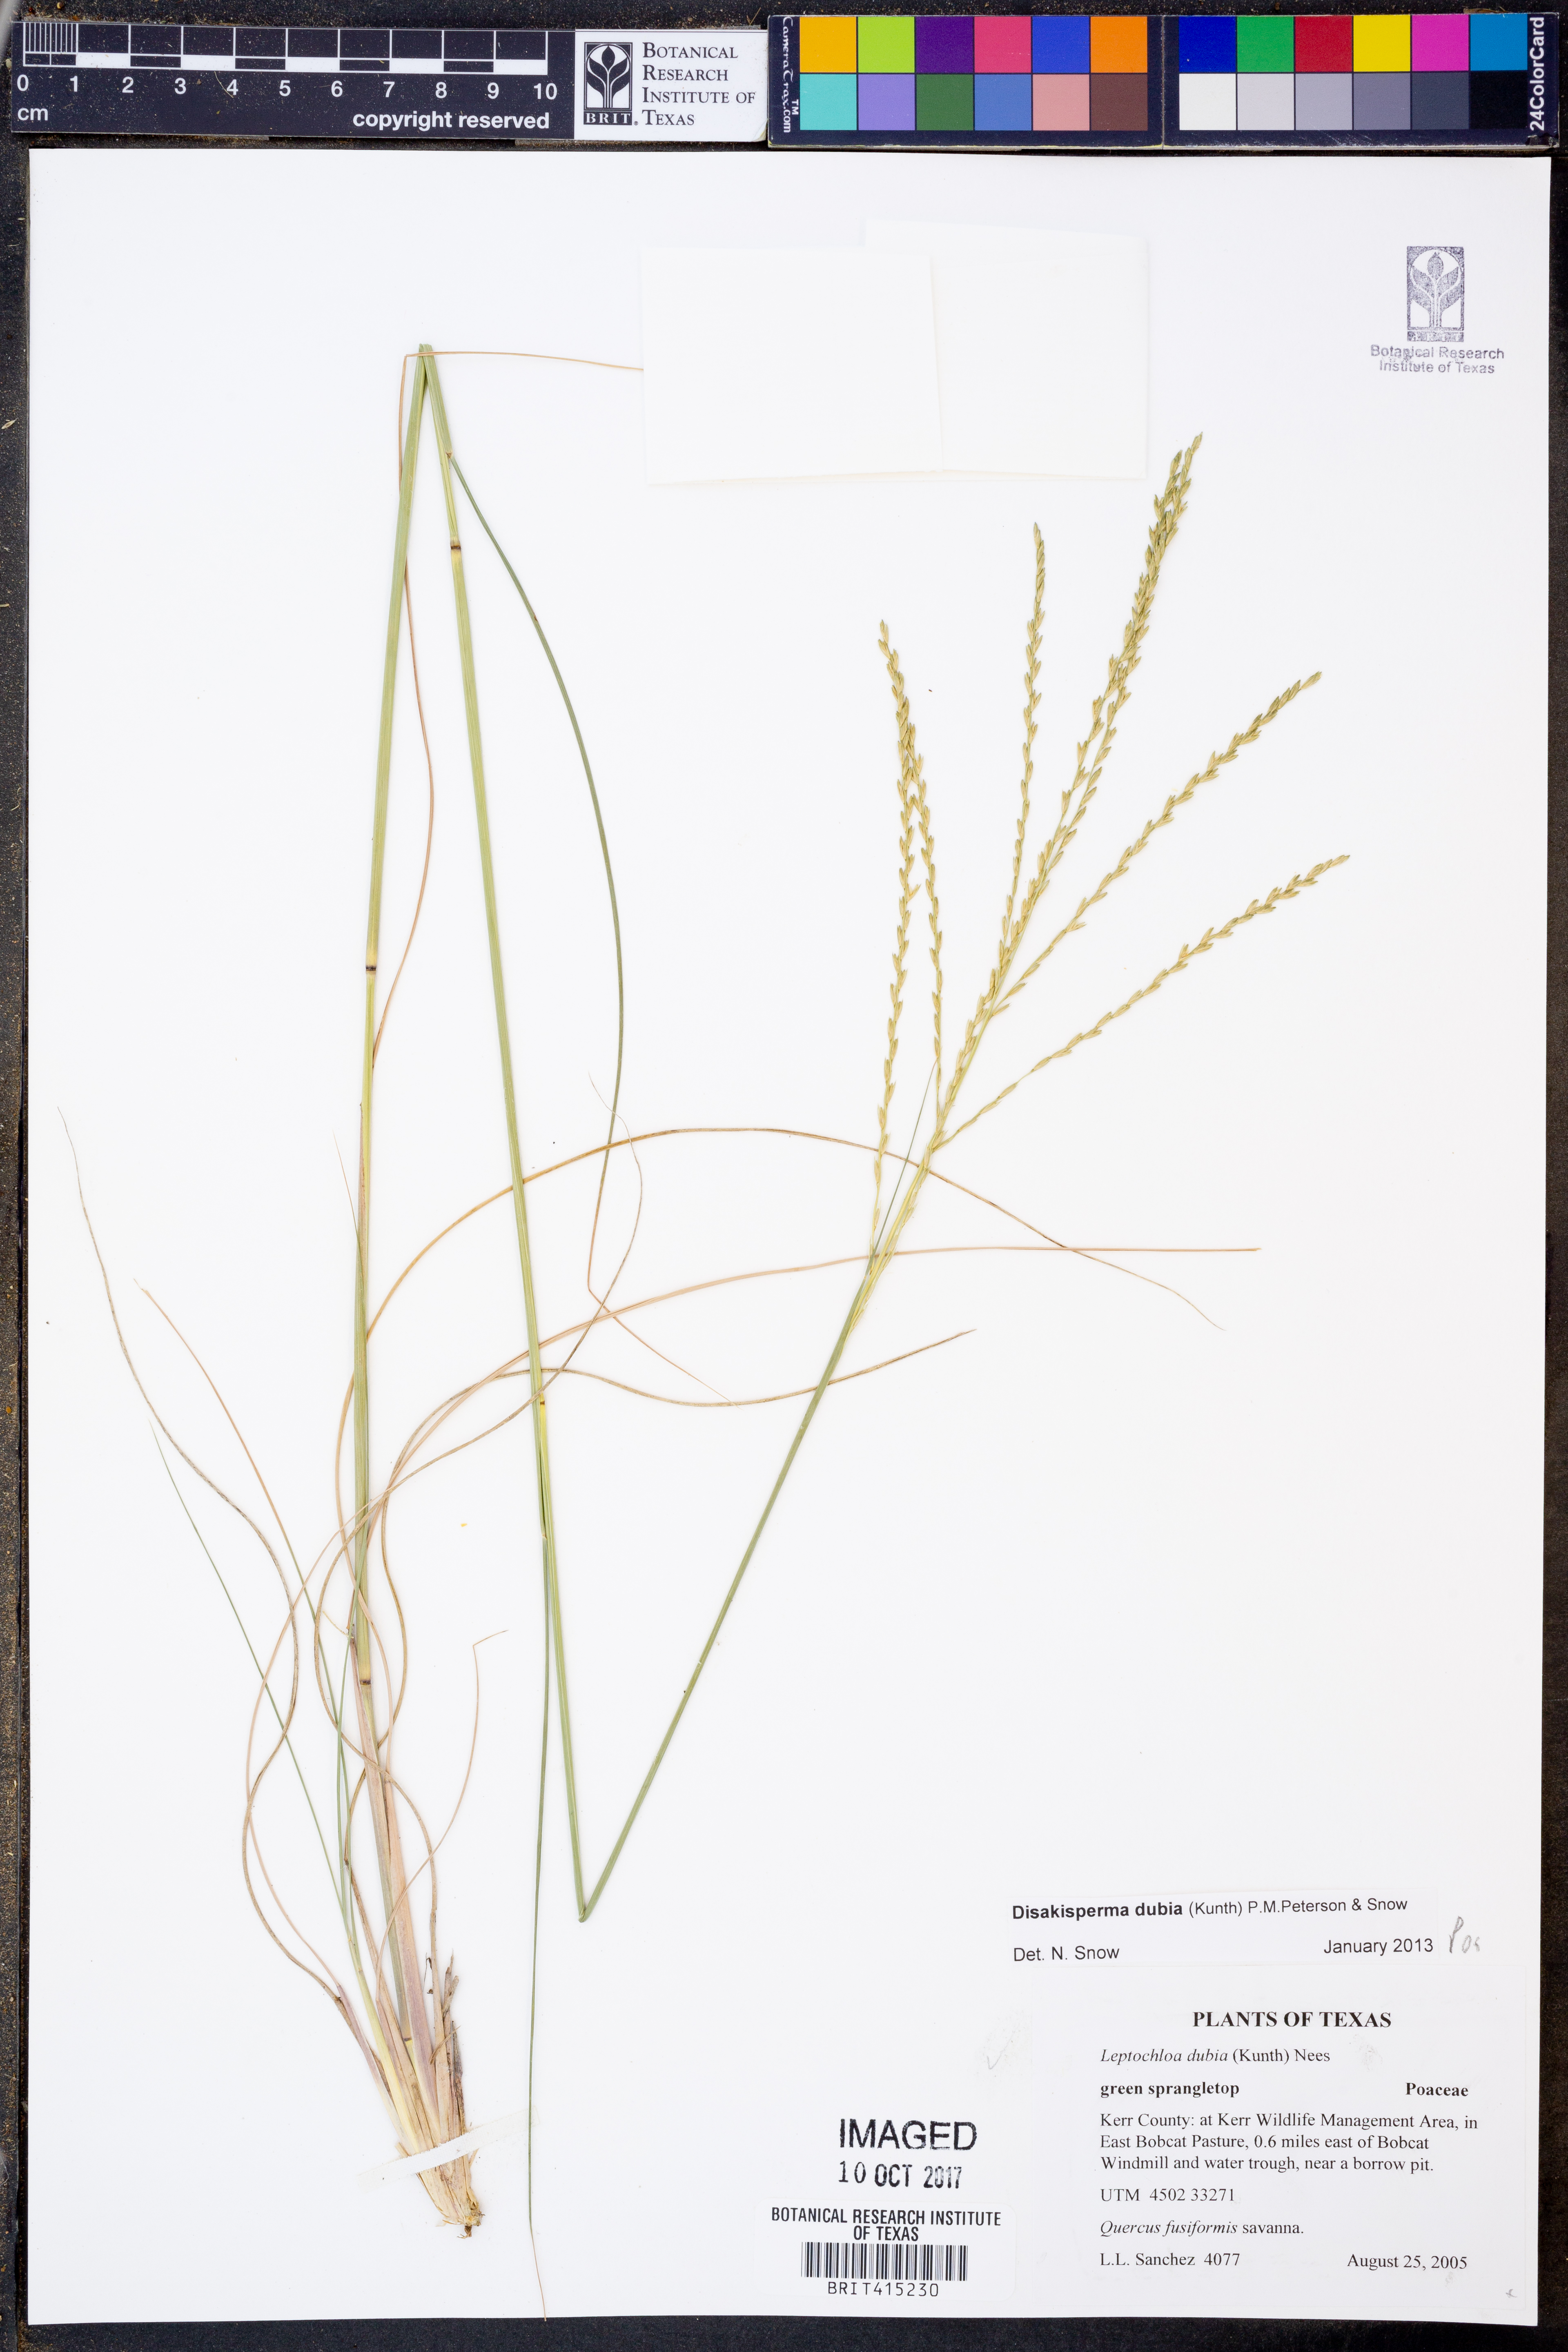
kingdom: Plantae
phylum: Tracheophyta
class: Liliopsida
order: Poales
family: Poaceae
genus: Disakisperma
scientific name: Disakisperma dubium
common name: Green sprangletop
